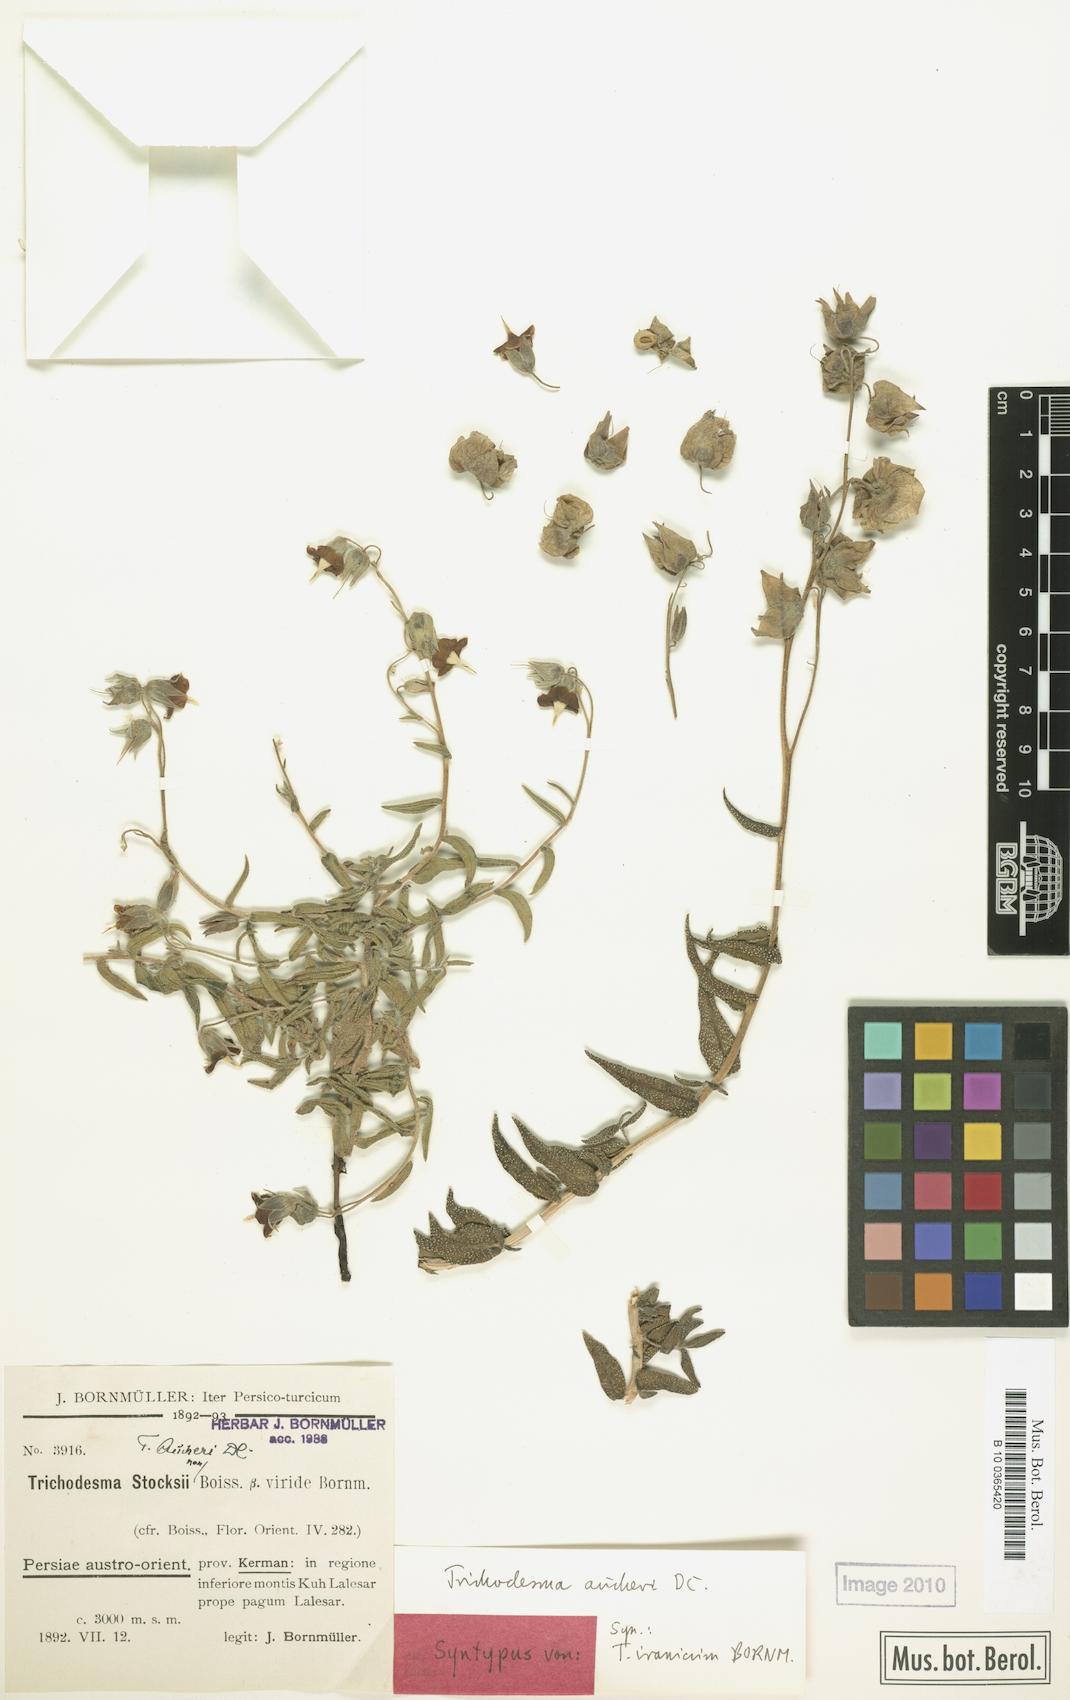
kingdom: Plantae
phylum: Tracheophyta
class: Magnoliopsida
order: Boraginales
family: Boraginaceae
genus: Trichodesma
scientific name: Trichodesma aucheri
